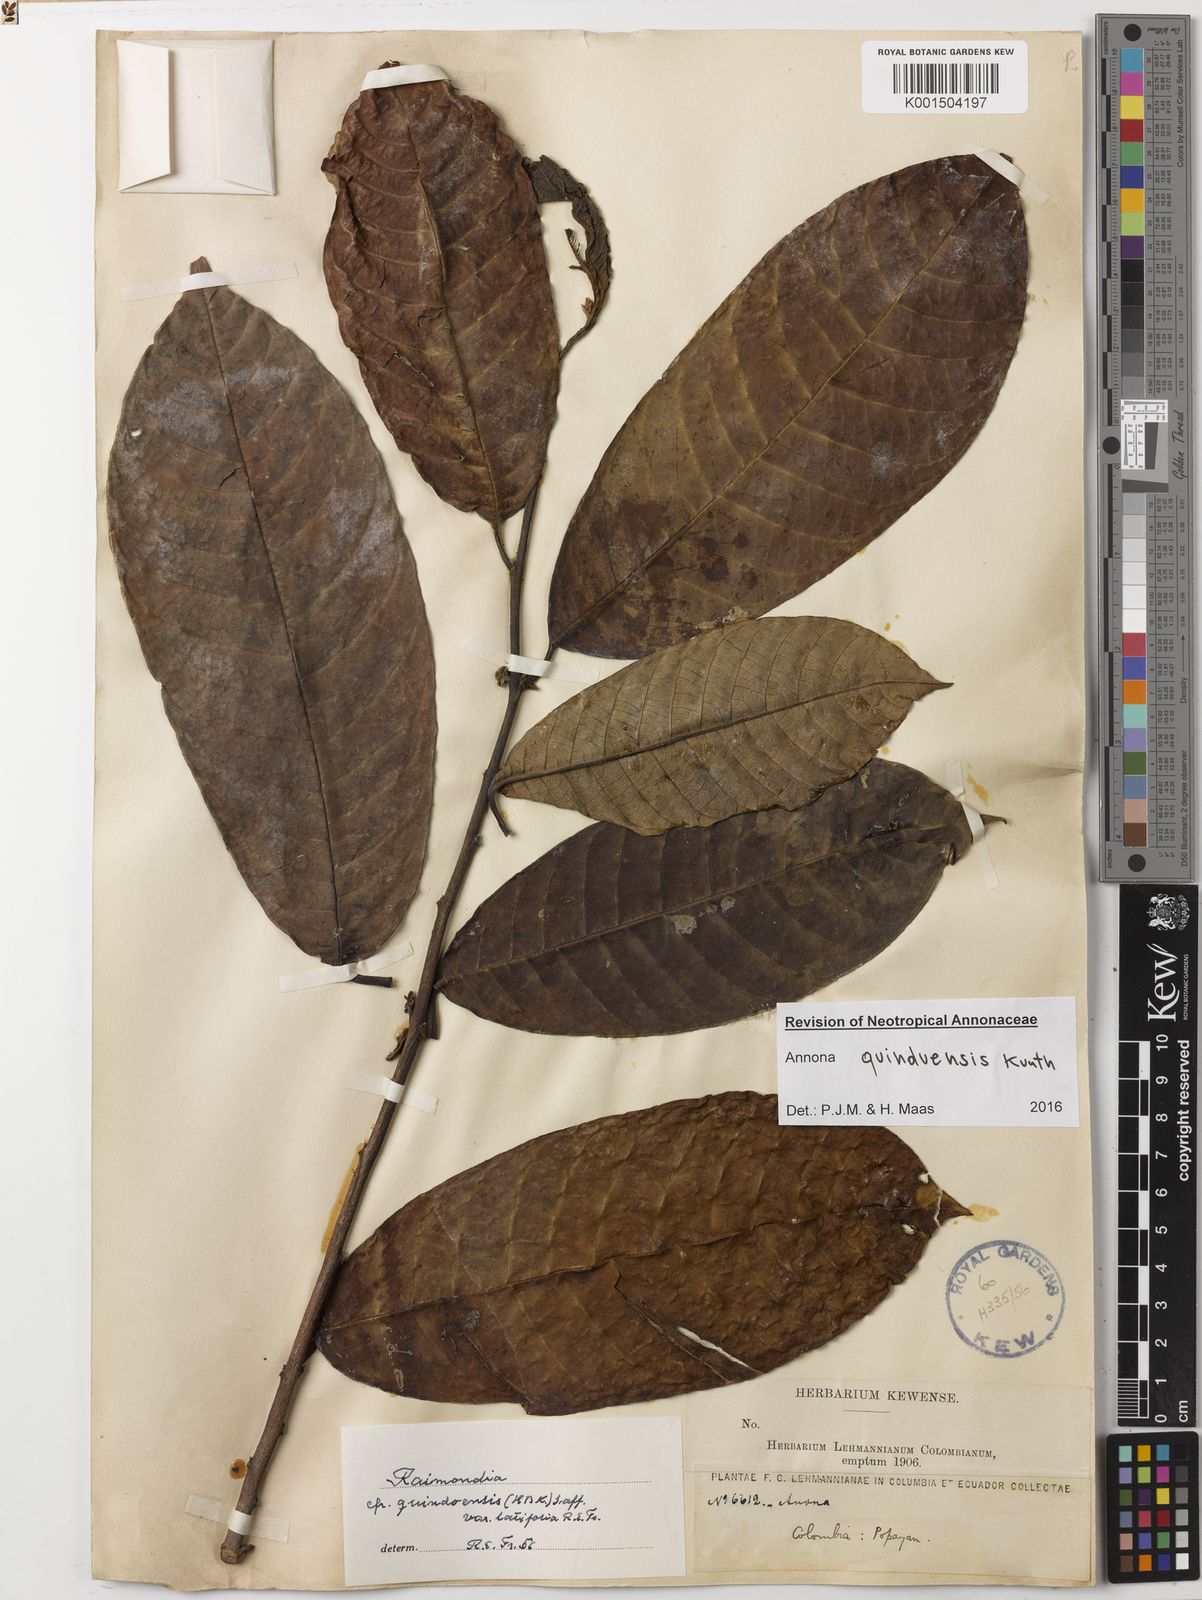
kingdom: Plantae
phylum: Tracheophyta
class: Magnoliopsida
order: Magnoliales
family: Annonaceae
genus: Annona
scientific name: Annona quinduensis
